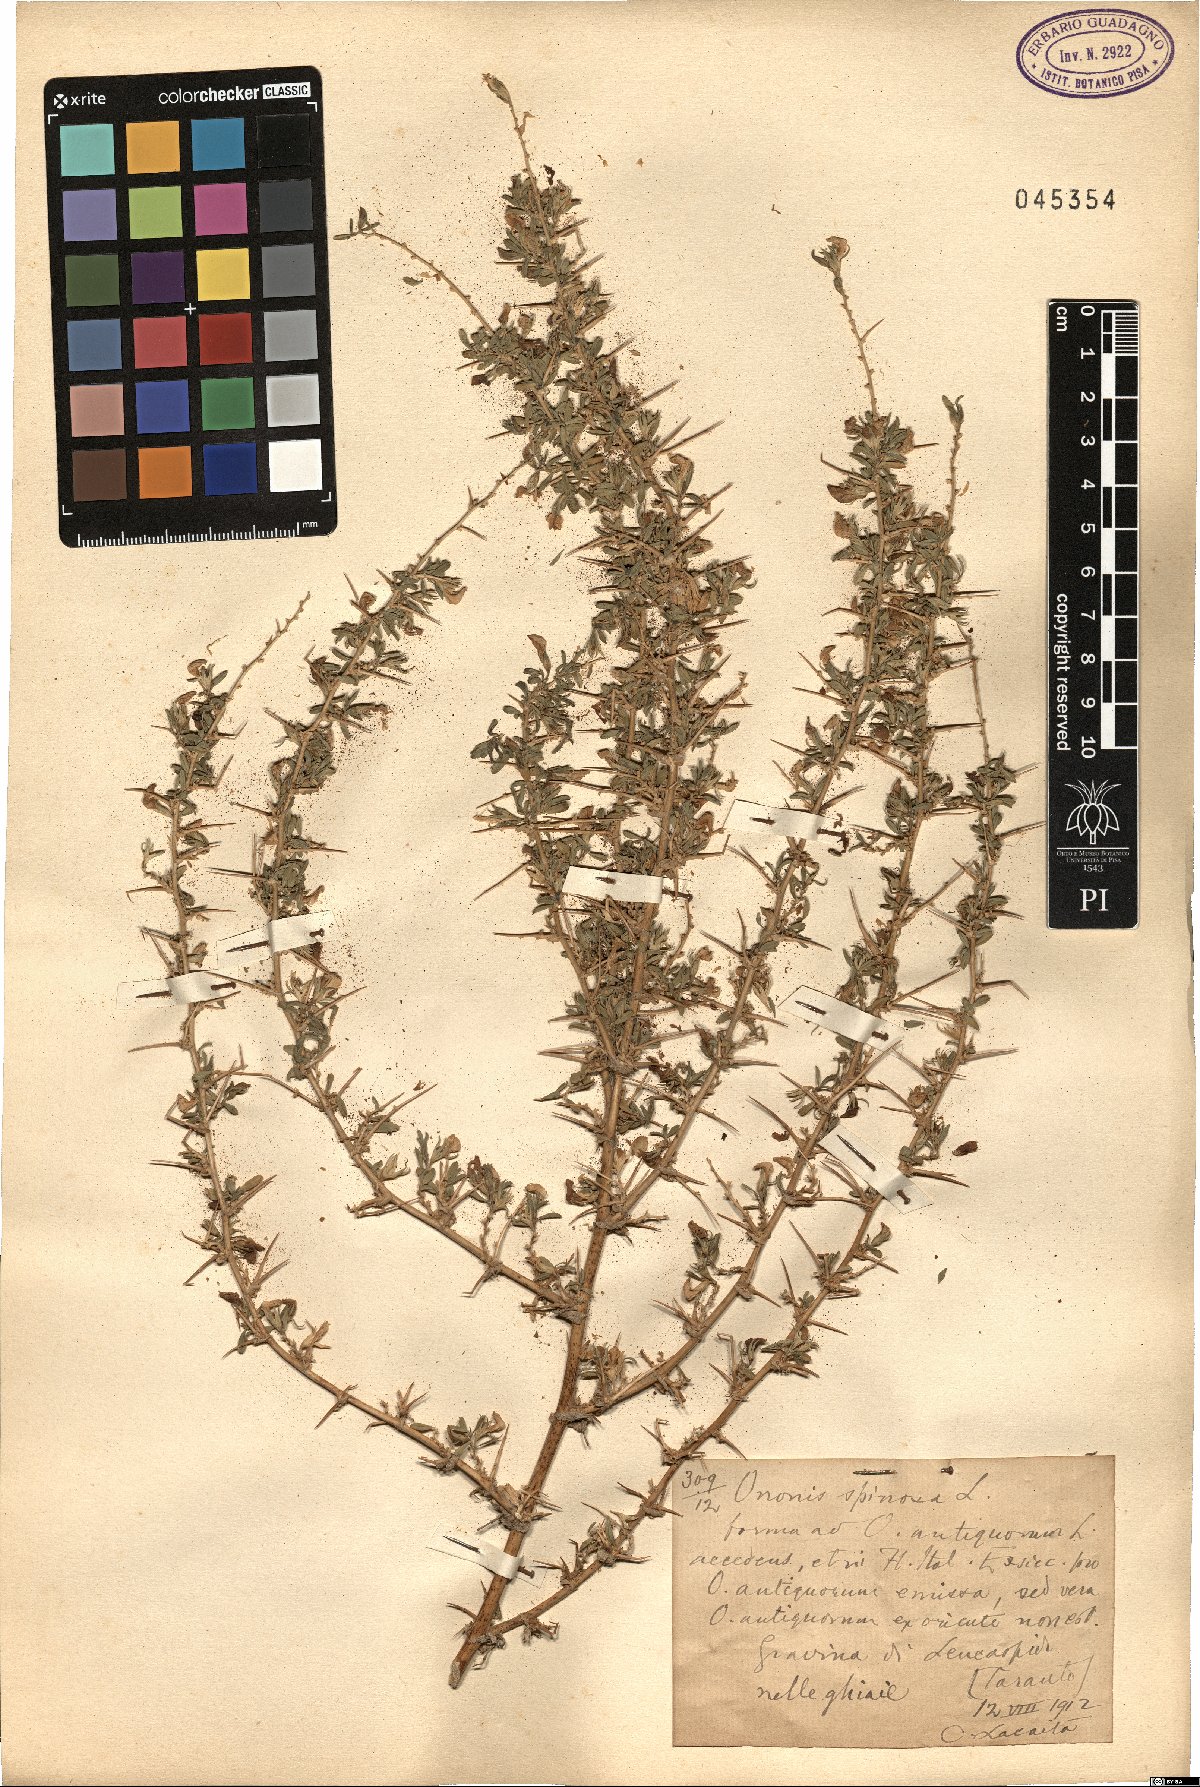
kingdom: Plantae
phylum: Tracheophyta
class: Magnoliopsida
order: Fabales
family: Fabaceae
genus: Ononis
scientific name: Ononis spinosa
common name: Spiny restharrow
